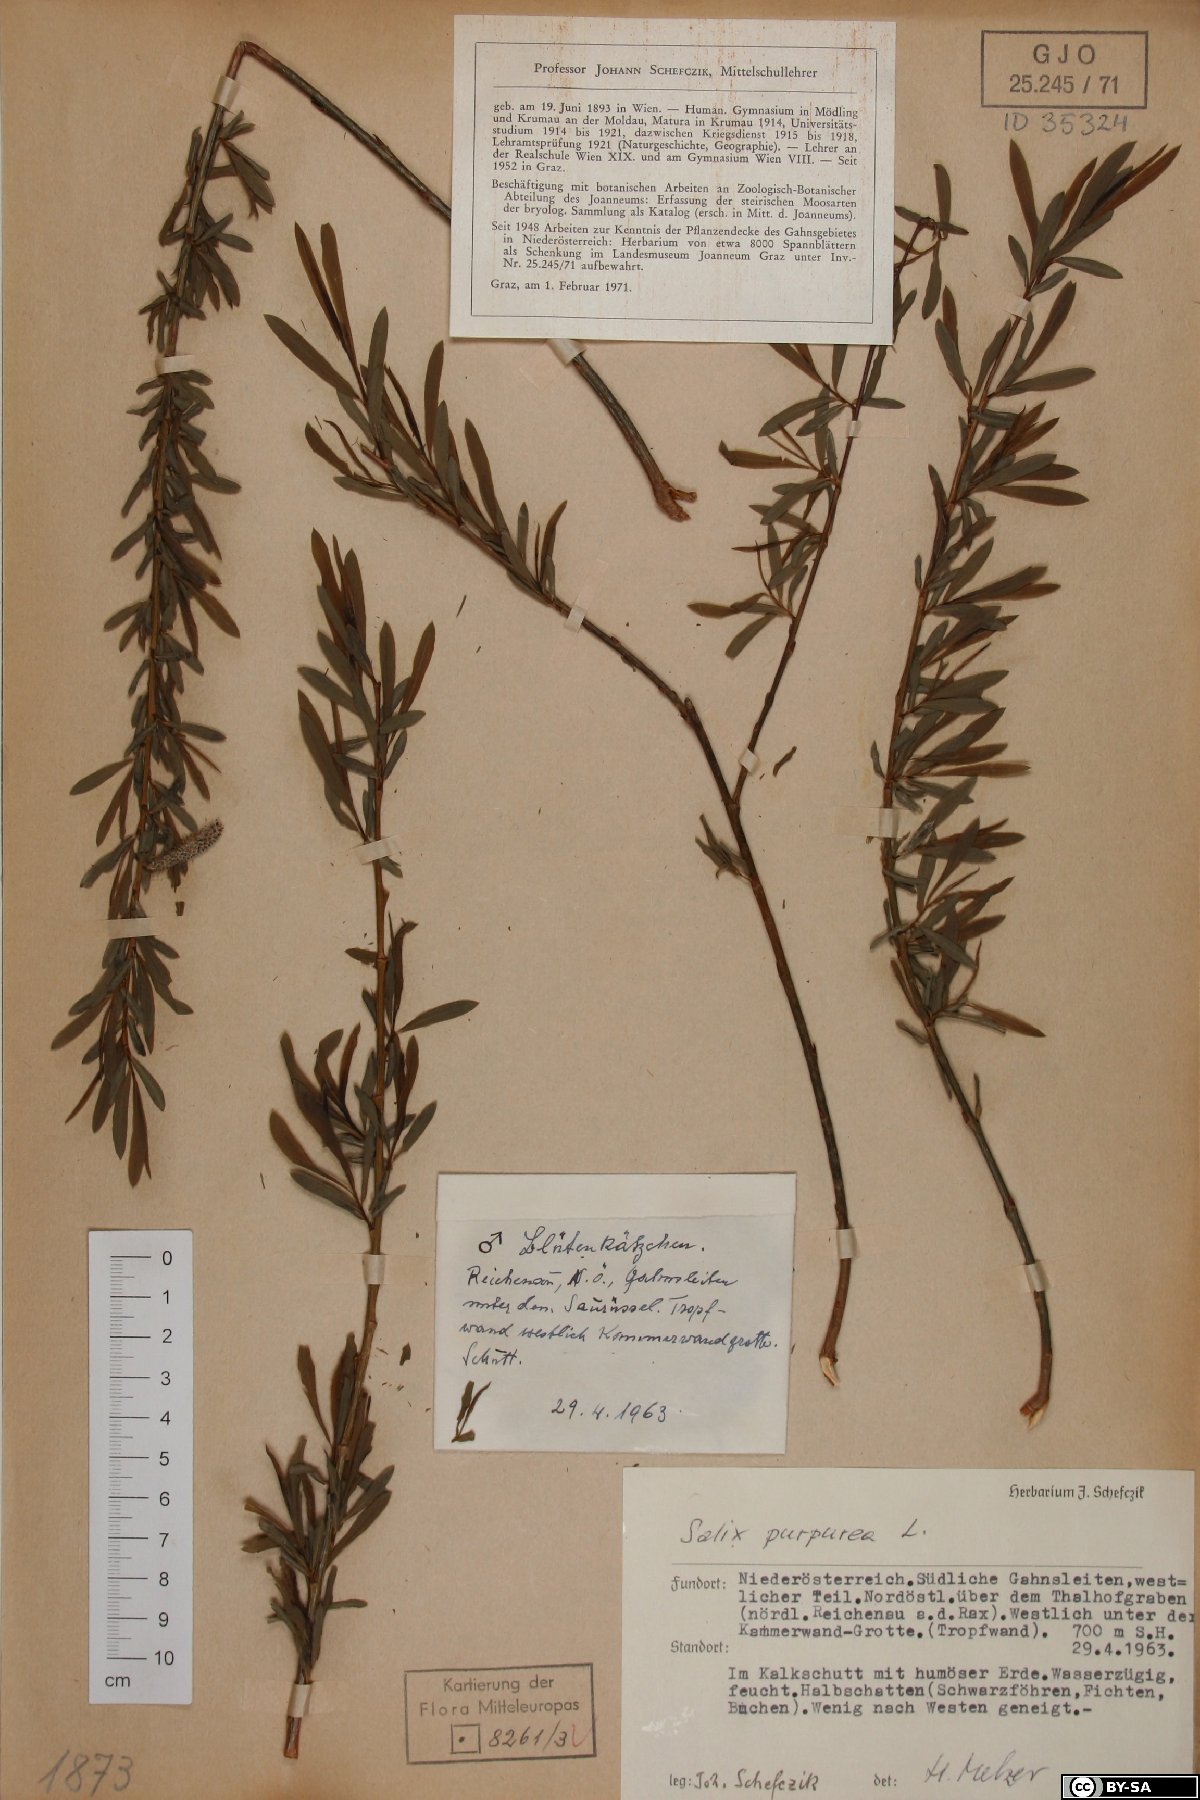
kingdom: Plantae
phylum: Tracheophyta
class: Magnoliopsida
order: Malpighiales
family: Salicaceae
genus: Salix
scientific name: Salix purpurea
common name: Purple willow
